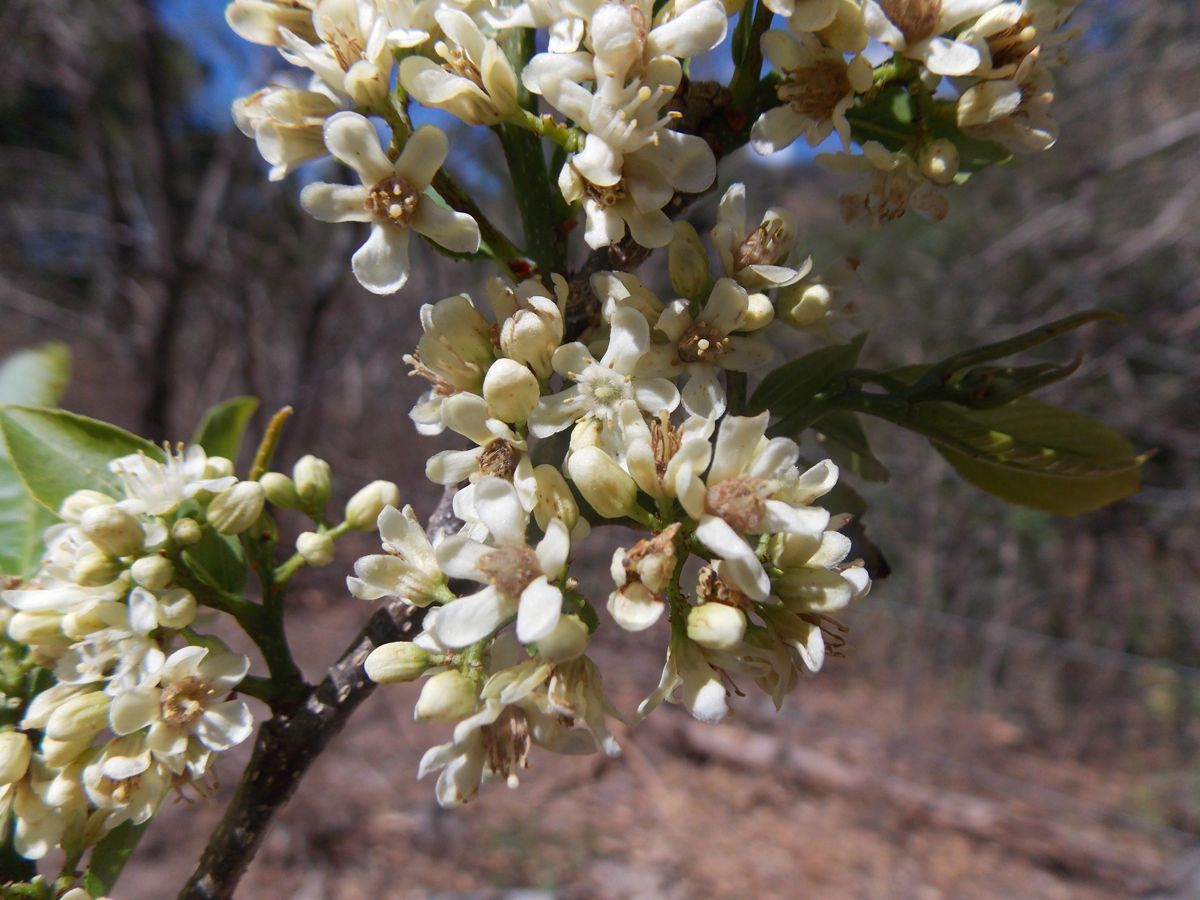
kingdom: Plantae
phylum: Tracheophyta
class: Magnoliopsida
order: Malpighiales
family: Salicaceae
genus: Casearia
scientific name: Casearia corymbosa
